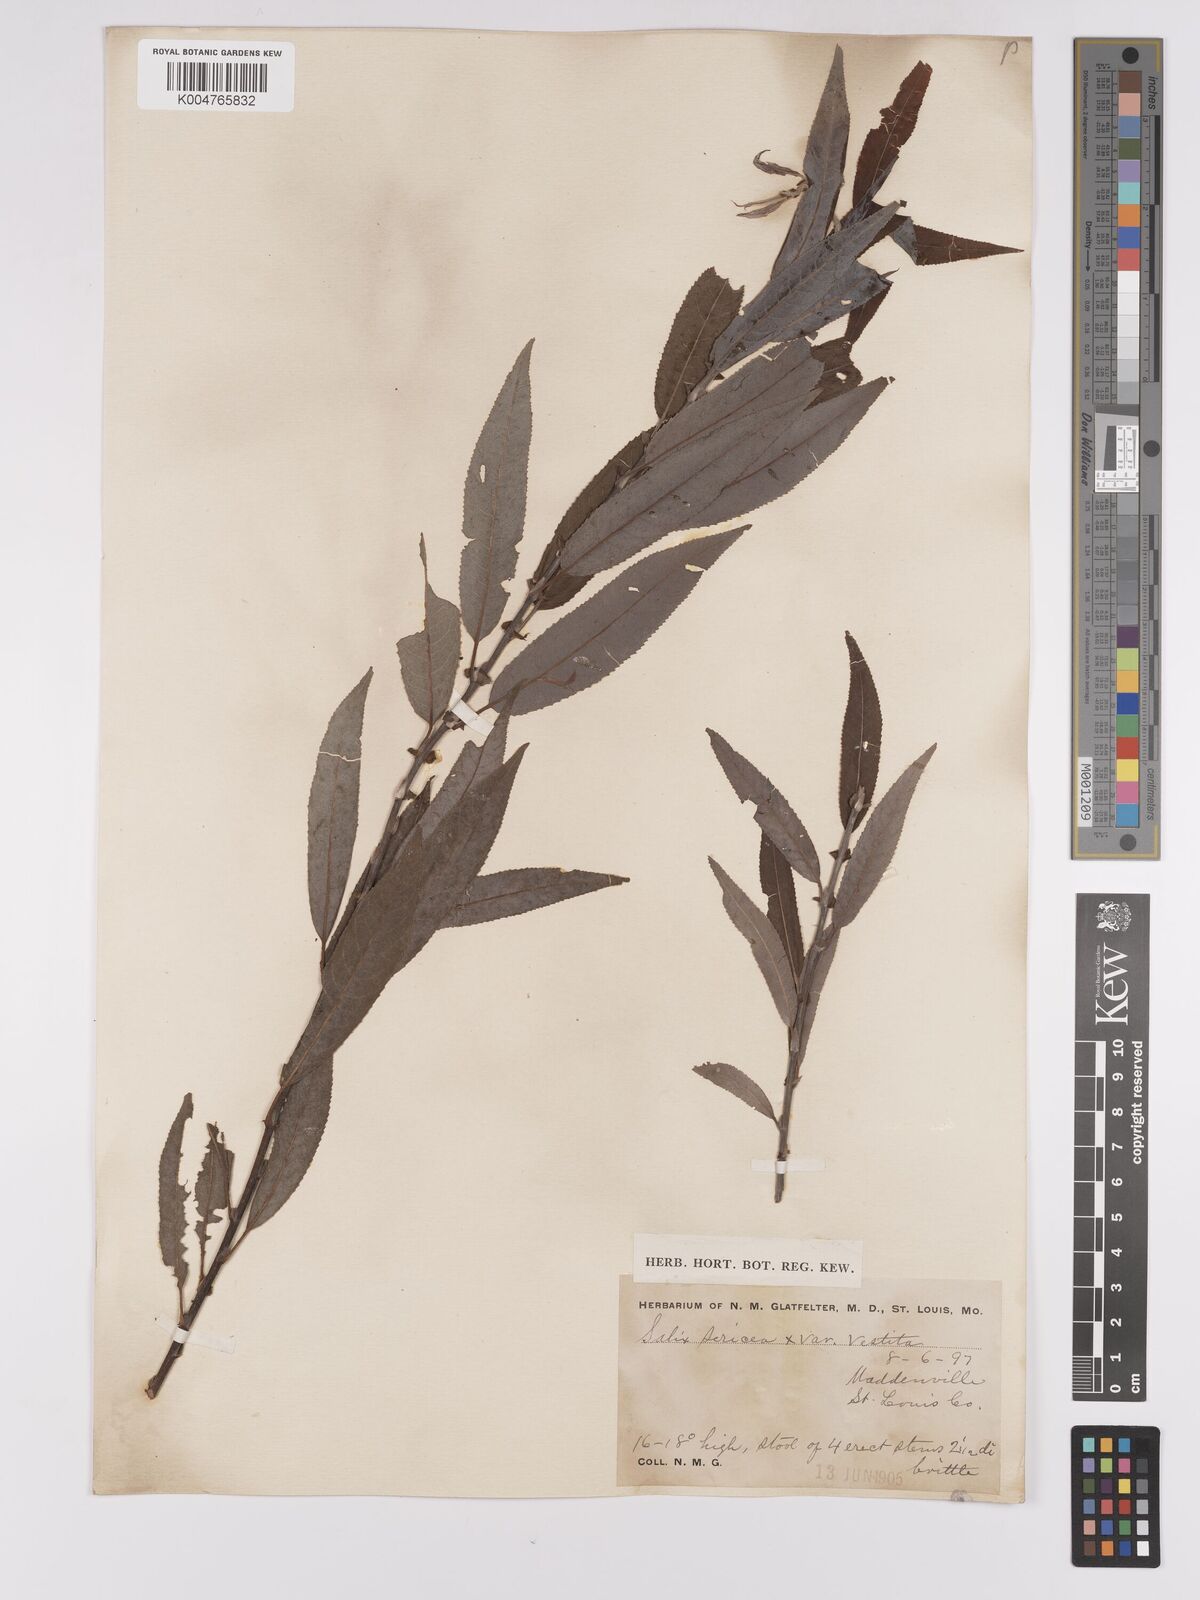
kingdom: Plantae
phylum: Tracheophyta
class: Magnoliopsida
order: Malpighiales
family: Salicaceae
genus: Salix
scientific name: Salix
